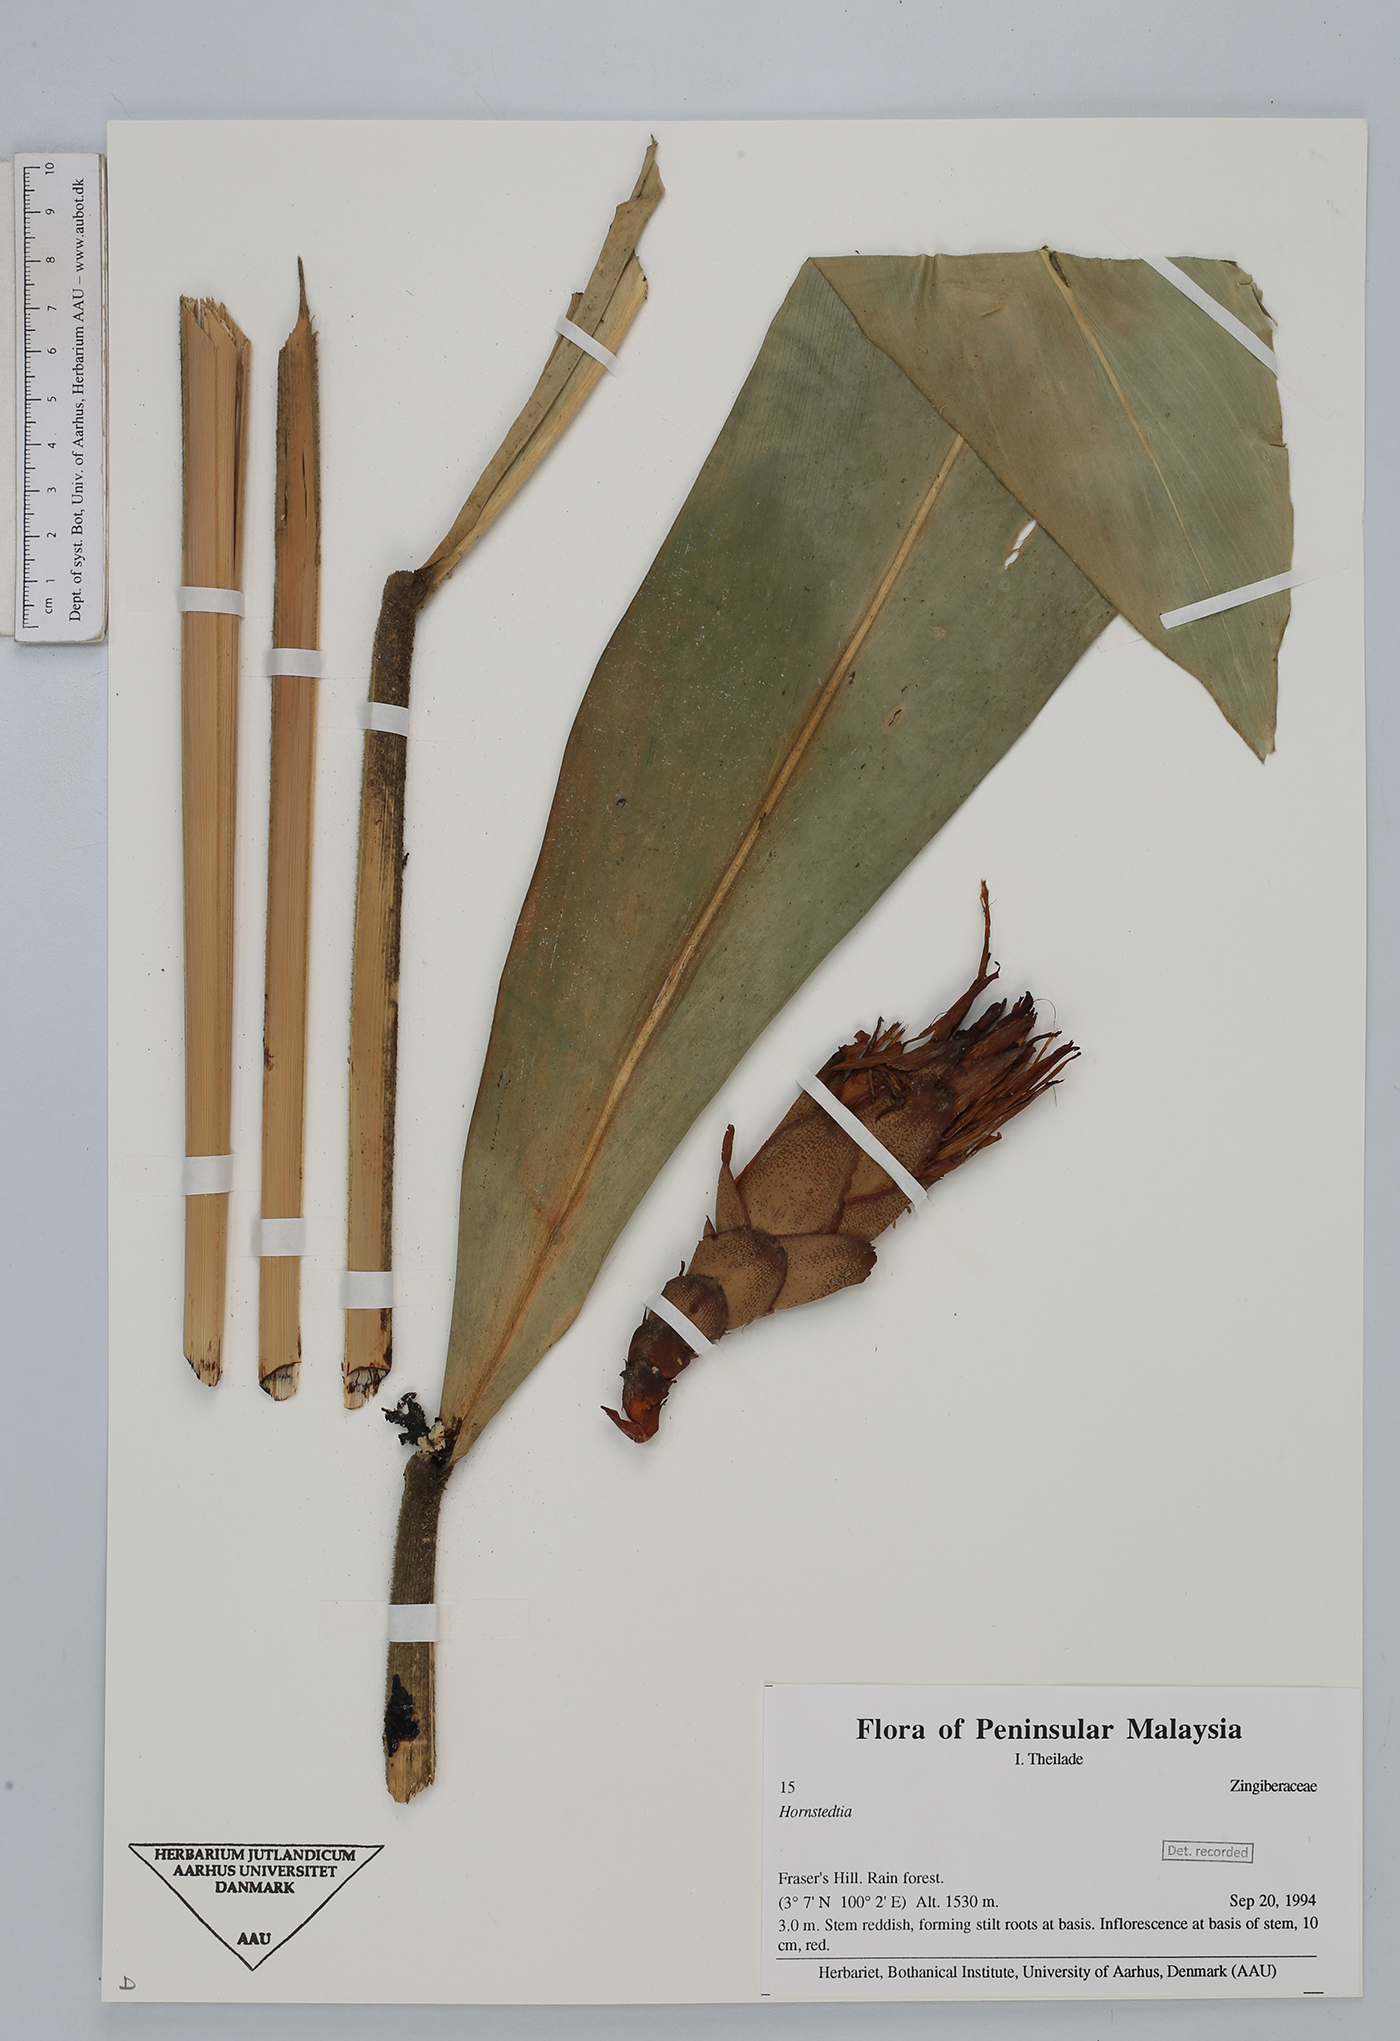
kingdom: Plantae
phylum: Tracheophyta
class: Liliopsida
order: Zingiberales
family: Zingiberaceae
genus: Hornstedtia
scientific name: Hornstedtia
